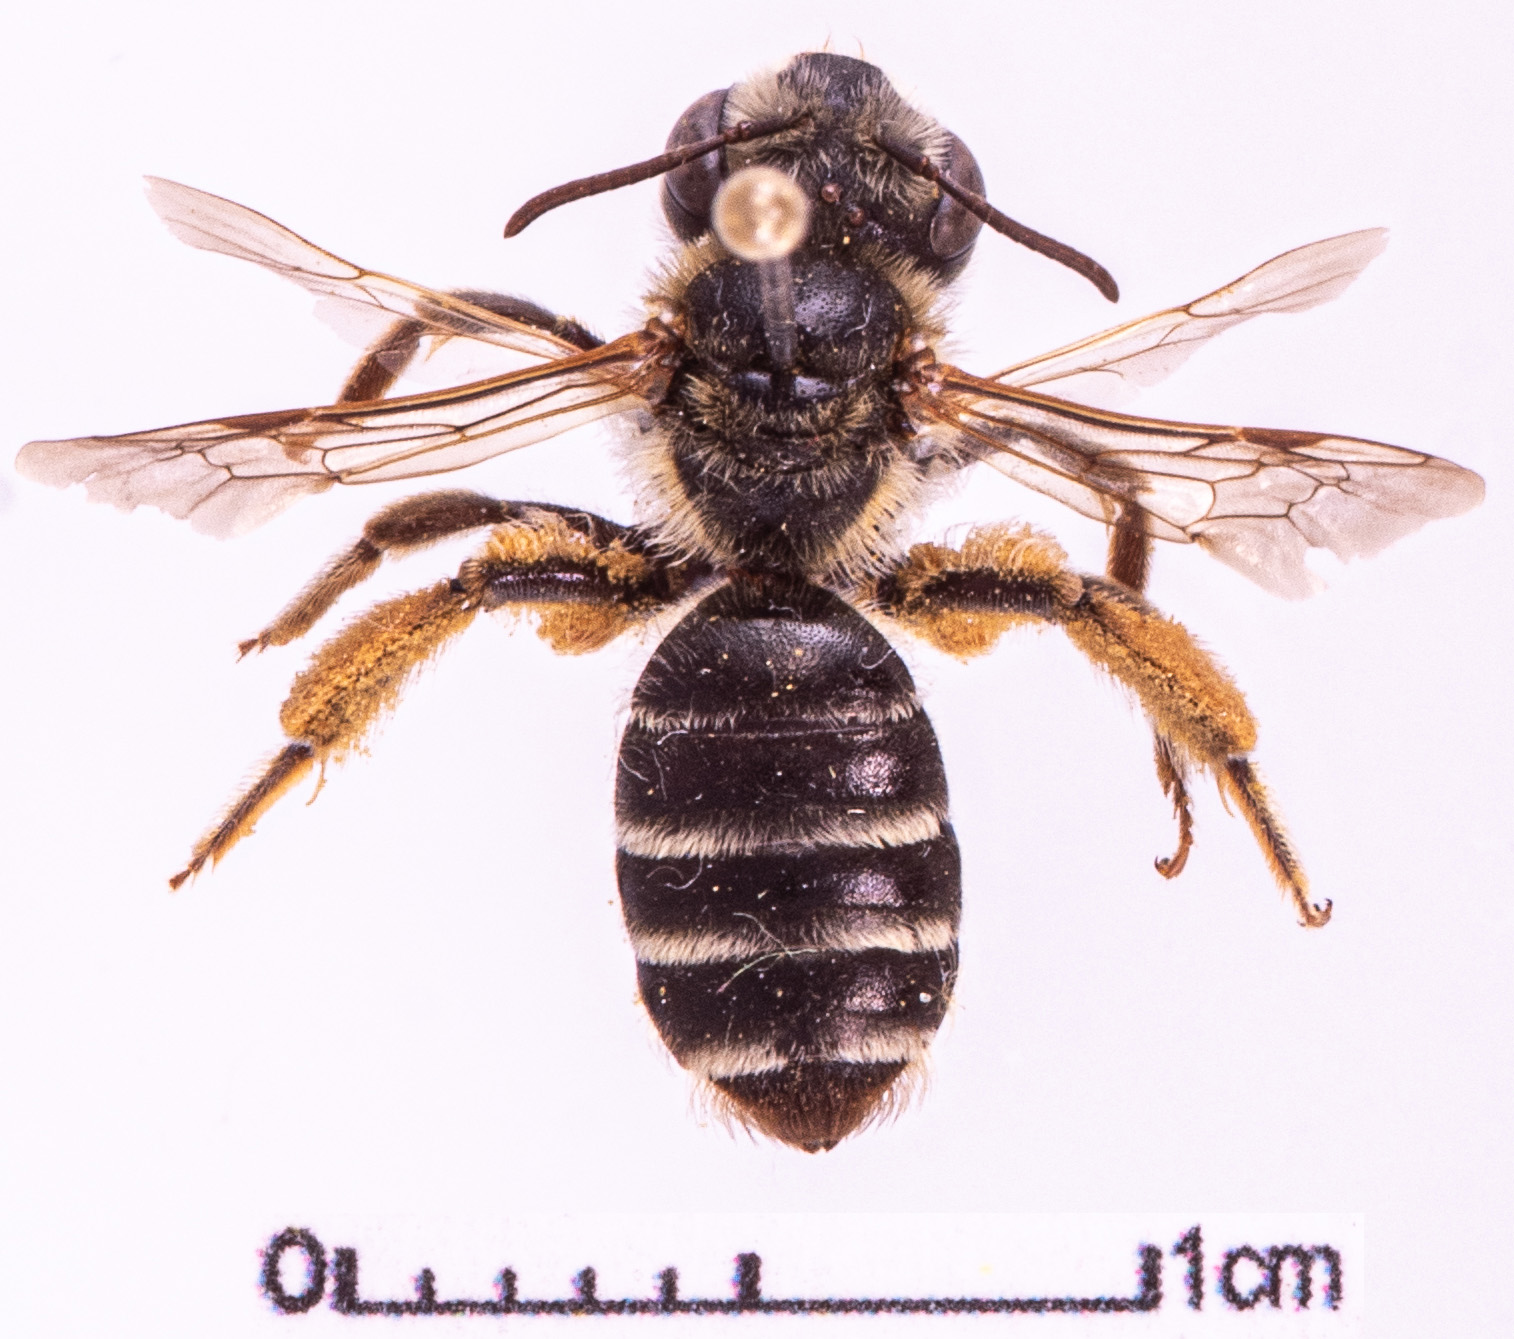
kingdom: Animalia
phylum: Arthropoda
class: Insecta
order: Hymenoptera
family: Andrenidae
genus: Andrena
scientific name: Andrena decipiens
